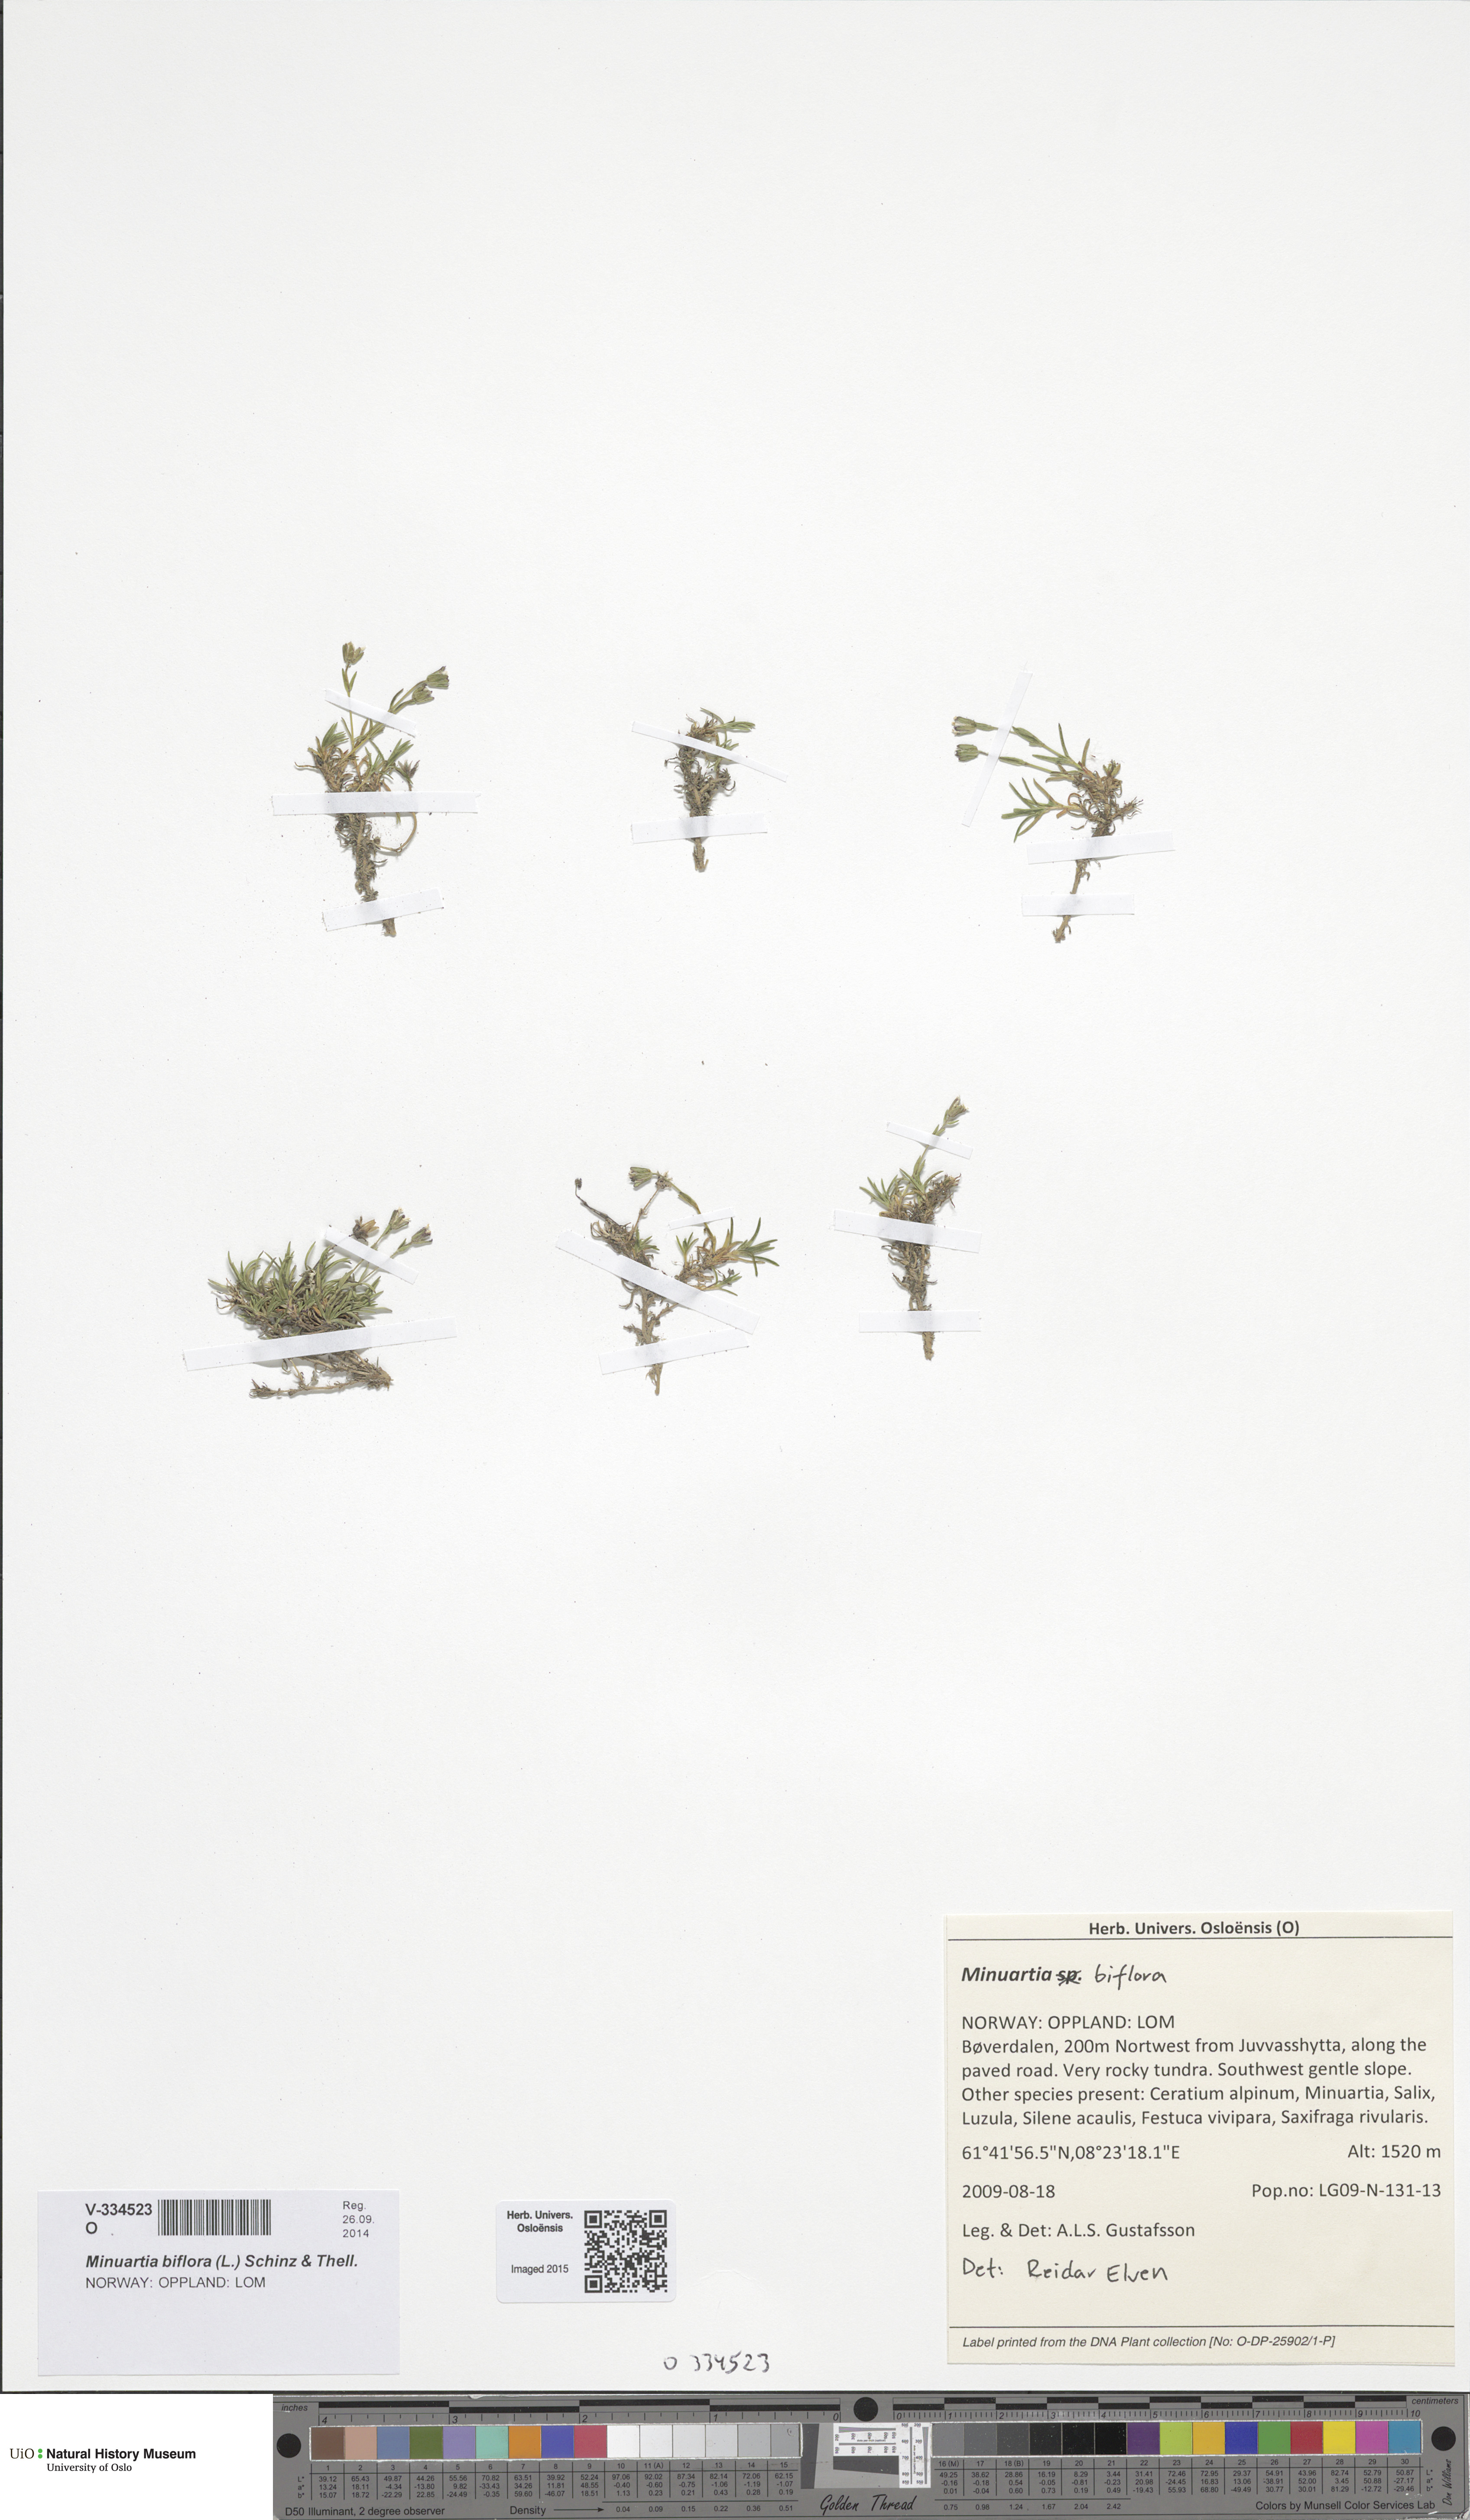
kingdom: Plantae
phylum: Tracheophyta
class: Magnoliopsida
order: Caryophyllales
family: Caryophyllaceae
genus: Cherleria
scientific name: Cherleria biflora
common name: Mountain sandwort
